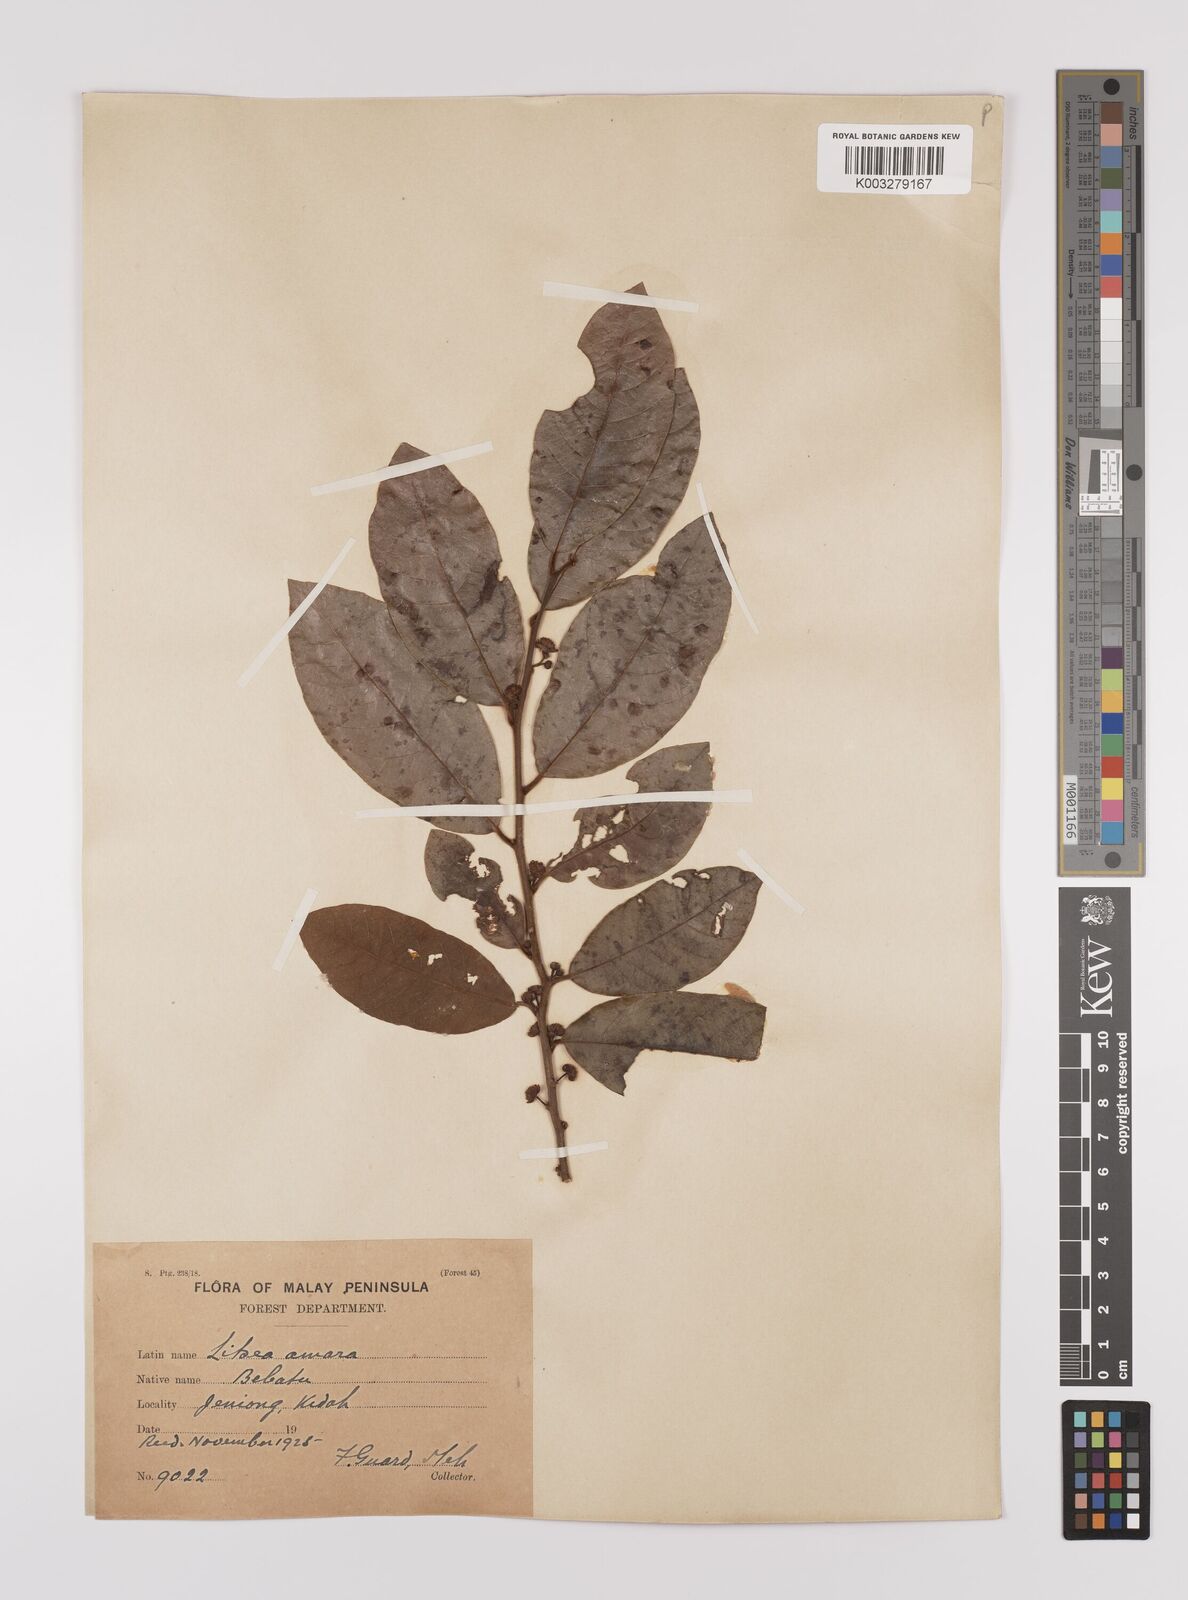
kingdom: Plantae
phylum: Tracheophyta
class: Magnoliopsida
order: Laurales
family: Lauraceae
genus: Litsea
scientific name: Litsea umbellata
